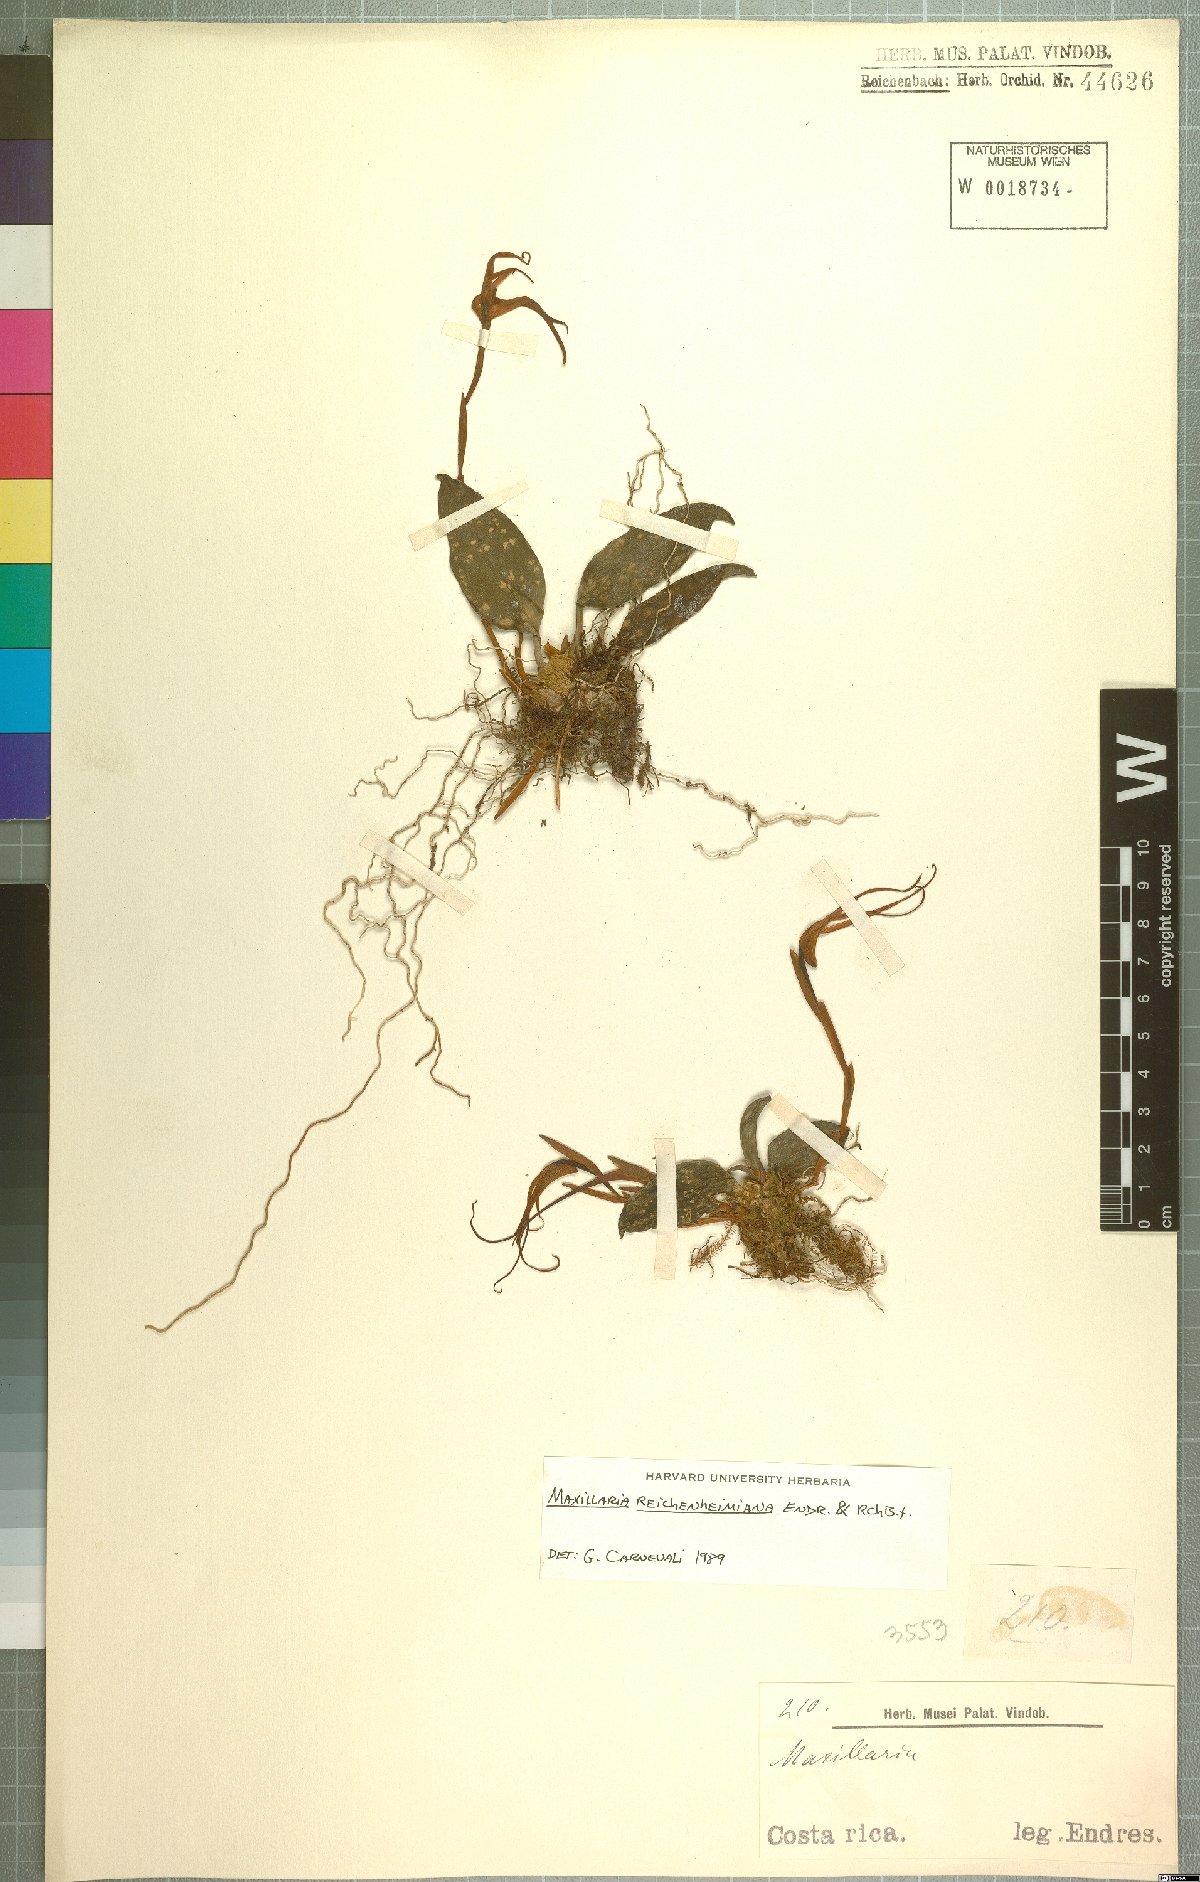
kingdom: Plantae
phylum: Tracheophyta
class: Liliopsida
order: Asparagales
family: Orchidaceae
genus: Maxillaria
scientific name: Maxillaria reichenheimiana
